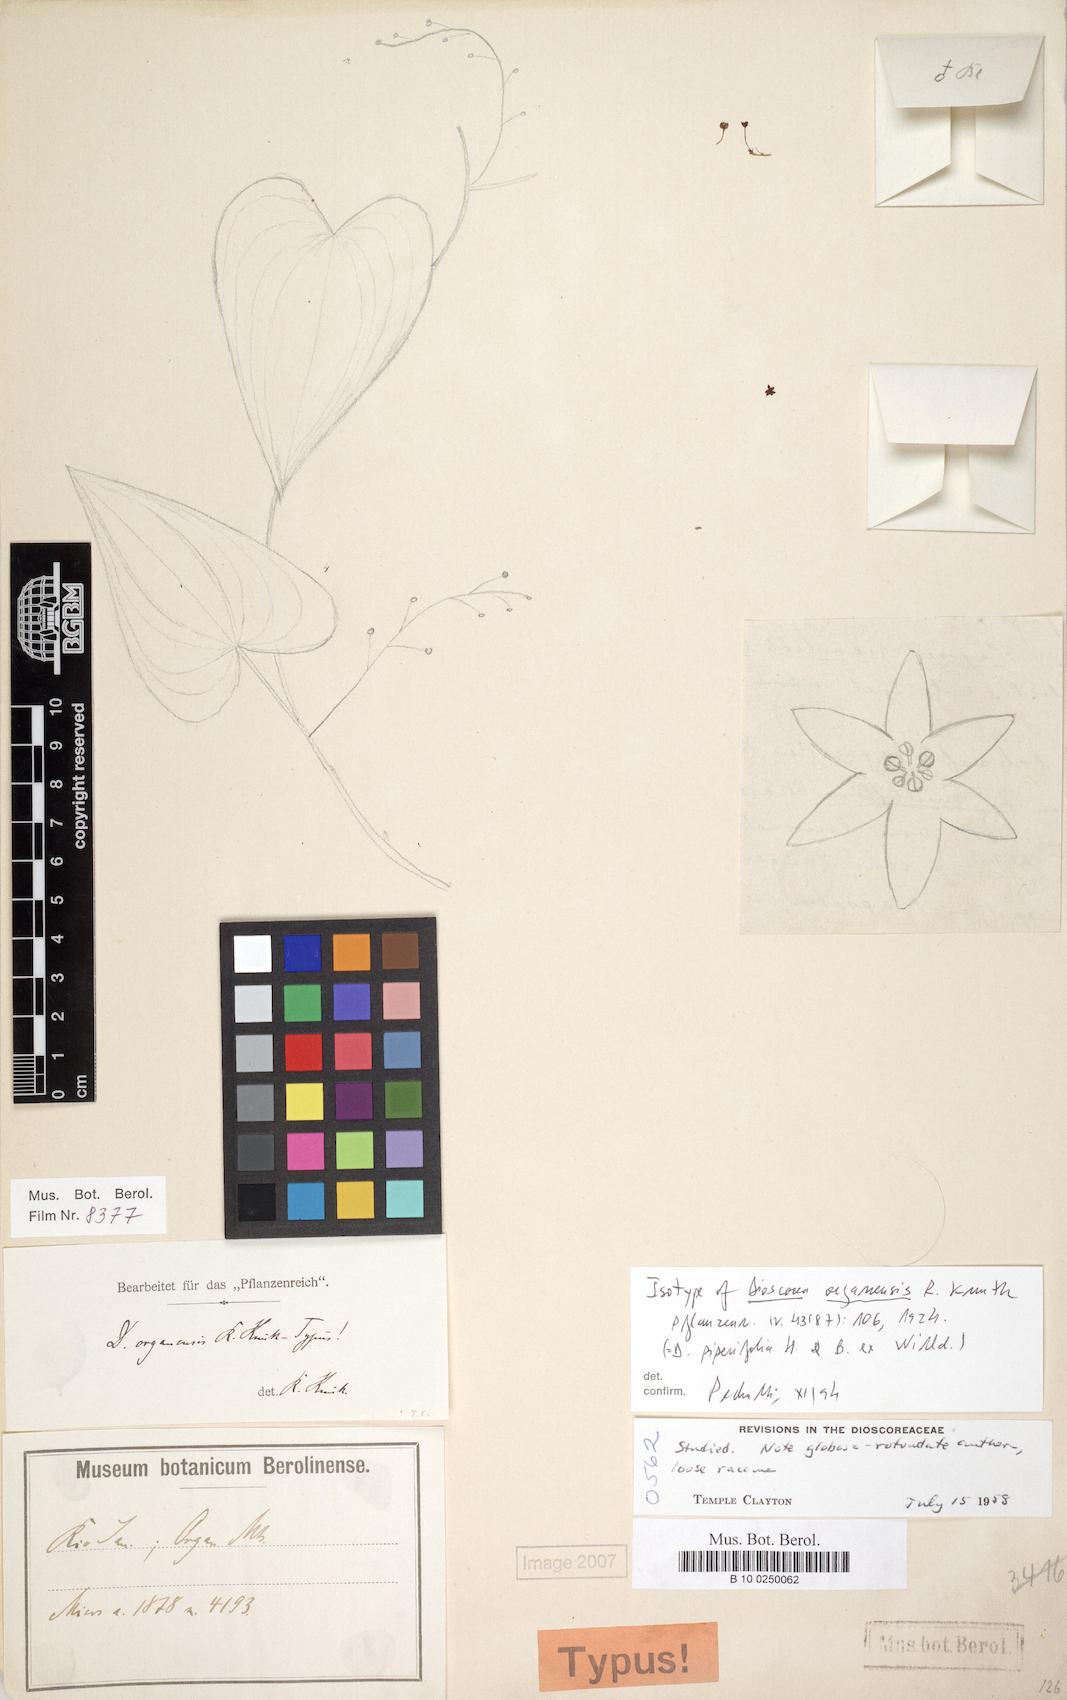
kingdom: Plantae
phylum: Tracheophyta
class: Liliopsida
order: Dioscoreales
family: Dioscoreaceae
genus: Dioscorea
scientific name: Dioscorea organensis
